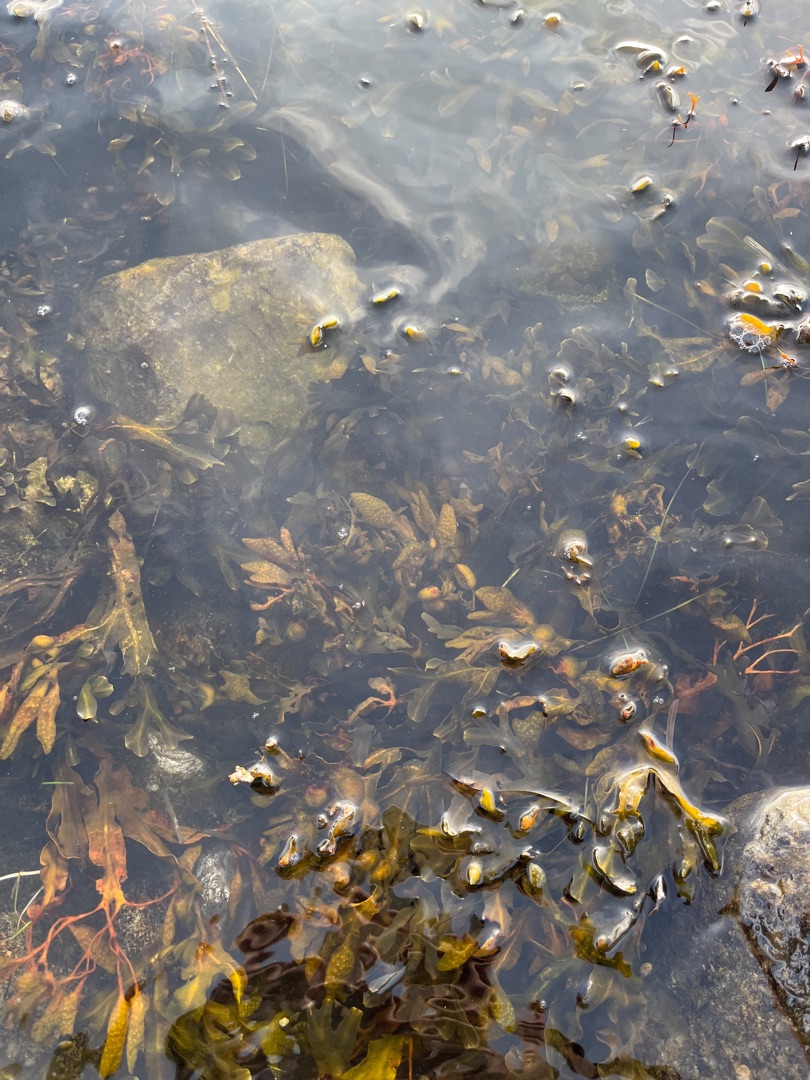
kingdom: Chromista
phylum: Ochrophyta
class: Phaeophyceae
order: Fucales
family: Fucaceae
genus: Fucus
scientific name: Fucus vesiculosus
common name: Blæretang
